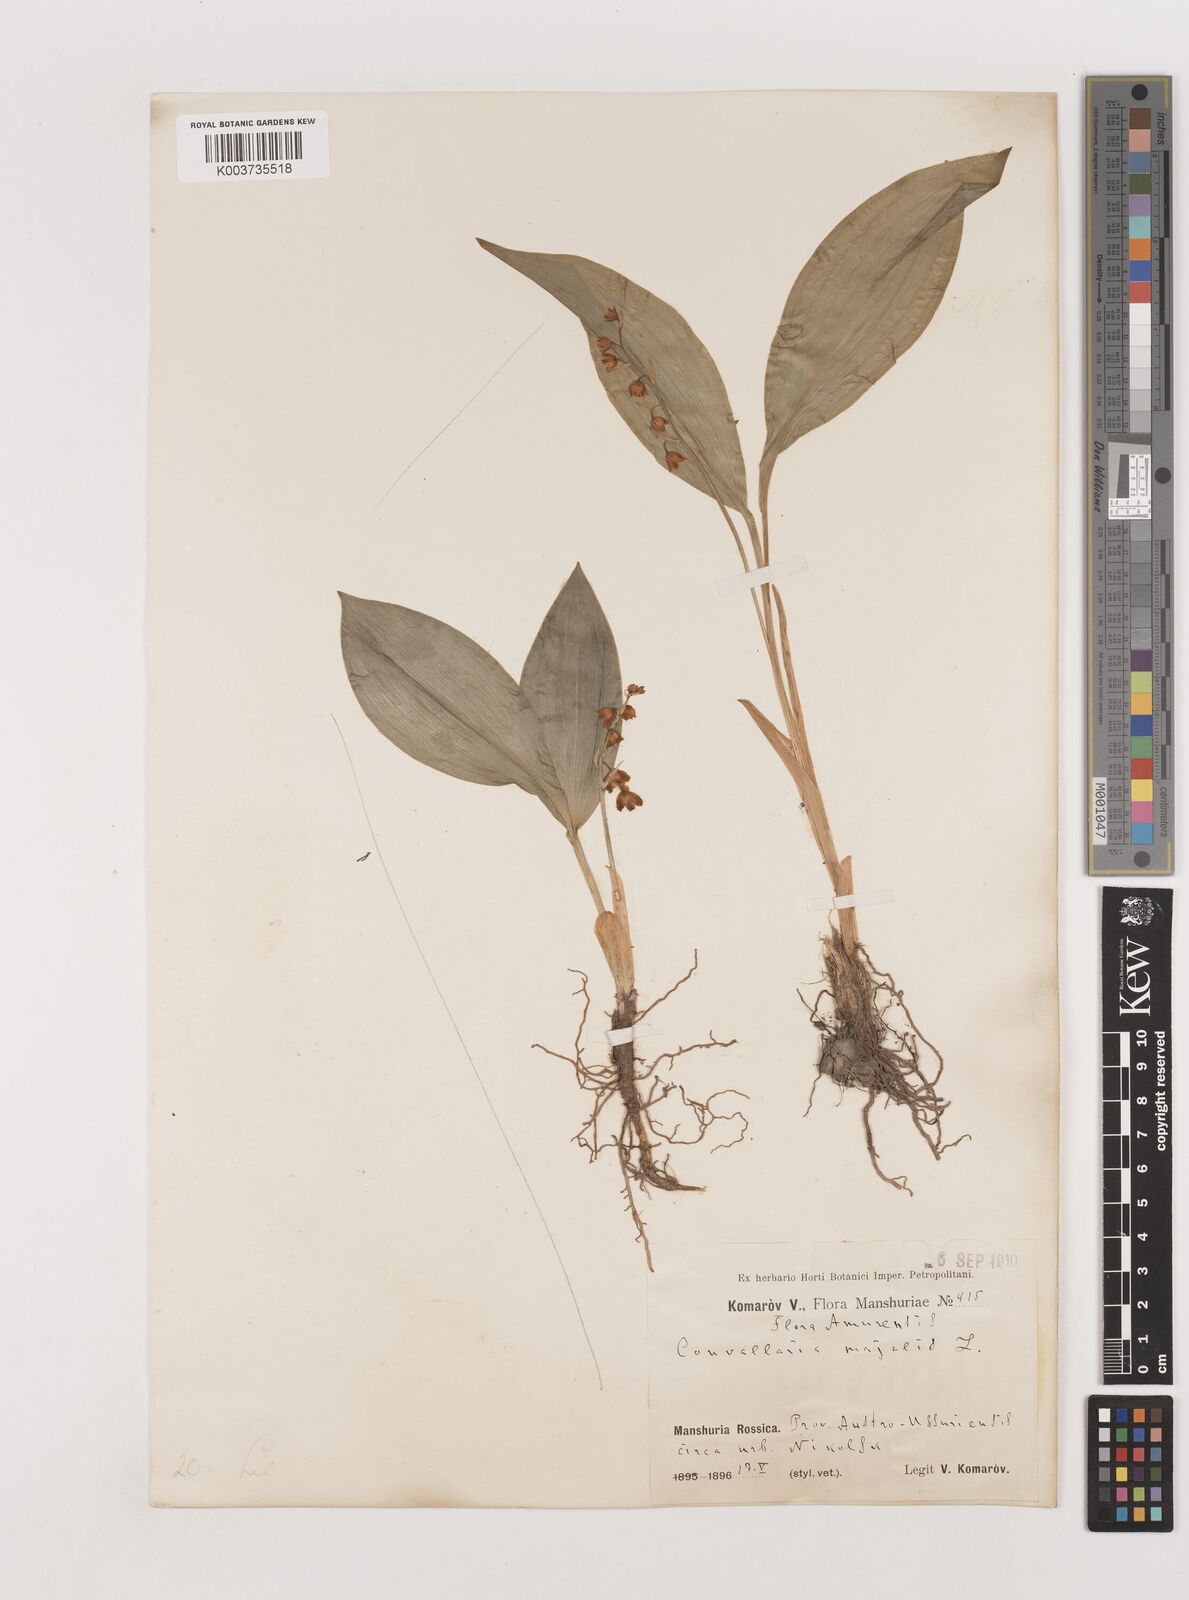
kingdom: Plantae
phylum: Tracheophyta
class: Liliopsida
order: Asparagales
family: Asparagaceae
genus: Convallaria
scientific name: Convallaria majalis
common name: Lily-of-the-valley
